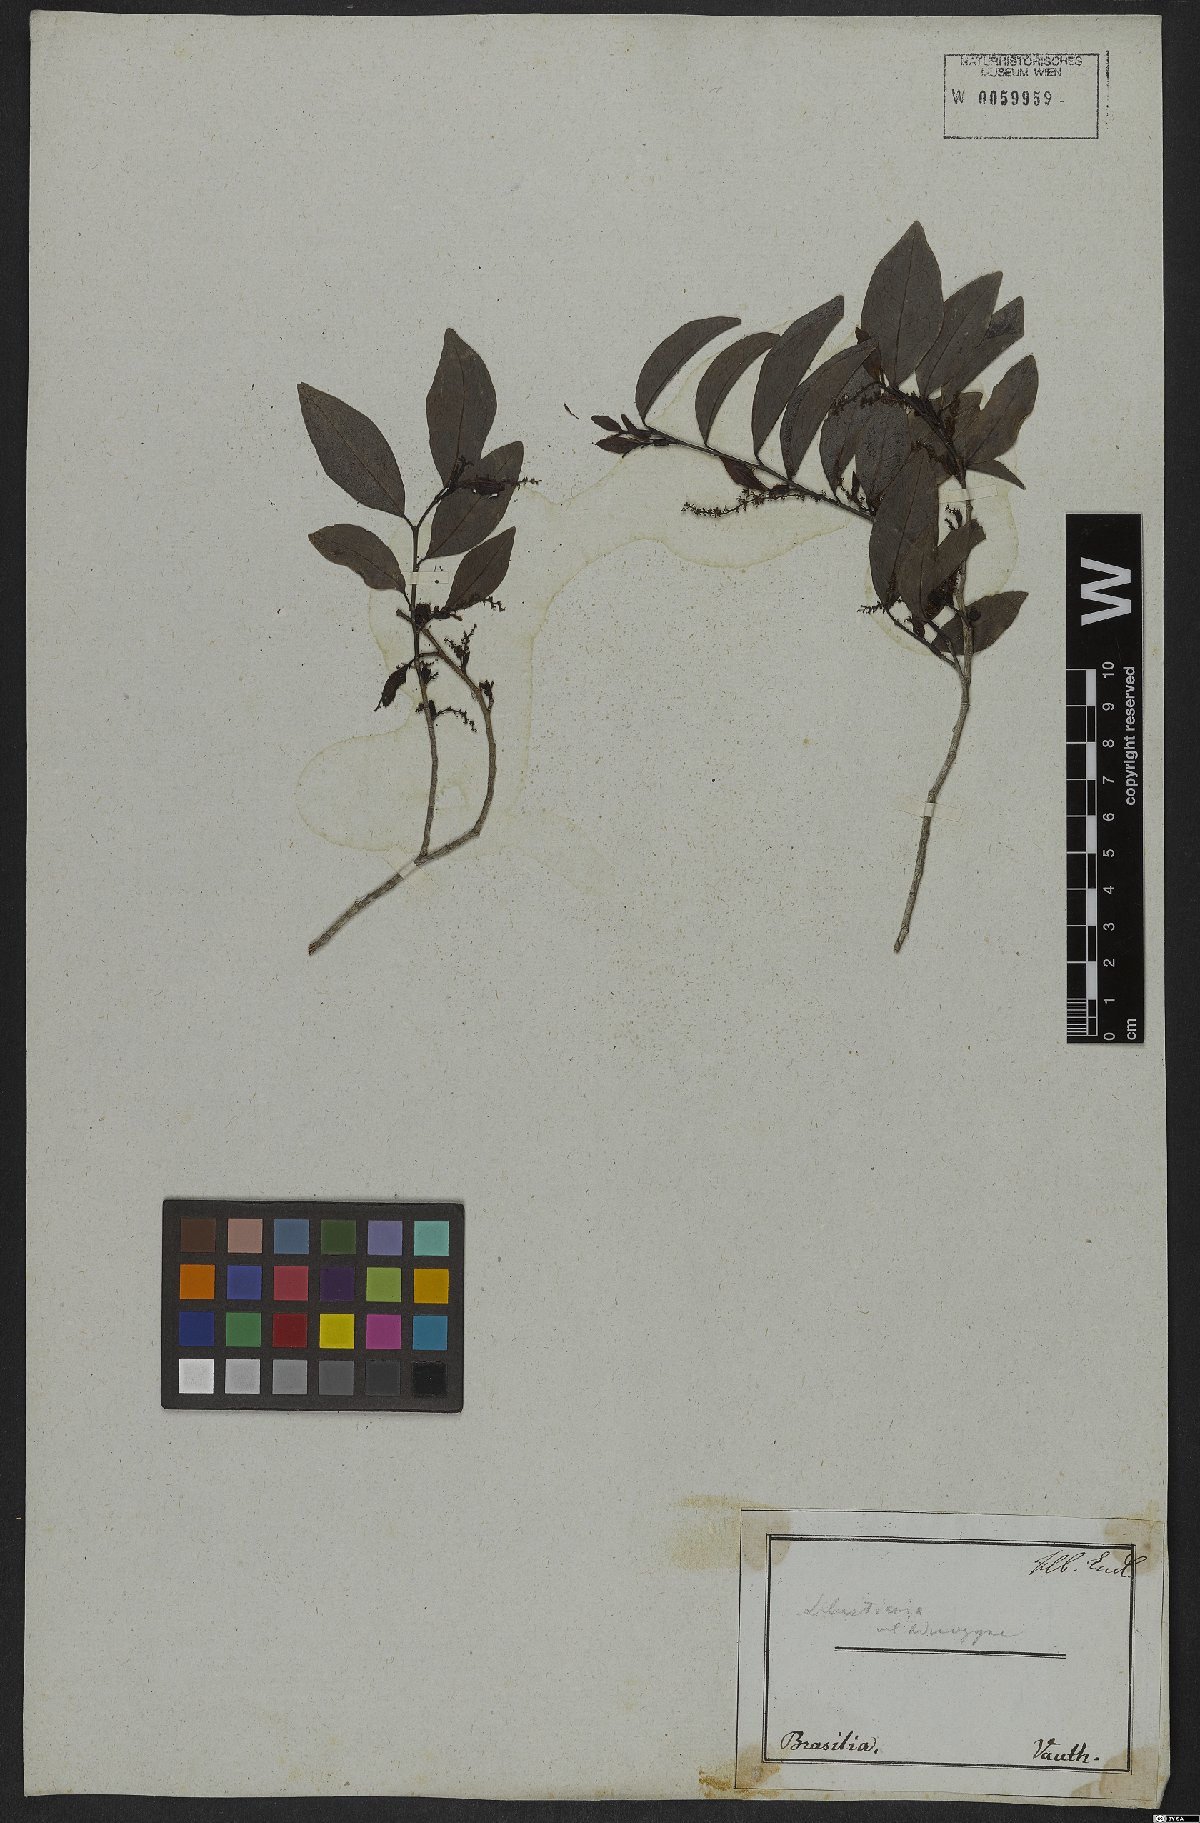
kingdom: Plantae
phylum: Tracheophyta
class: Magnoliopsida
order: Malpighiales
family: Euphorbiaceae
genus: Actinostemon
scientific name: Actinostemon concolor
